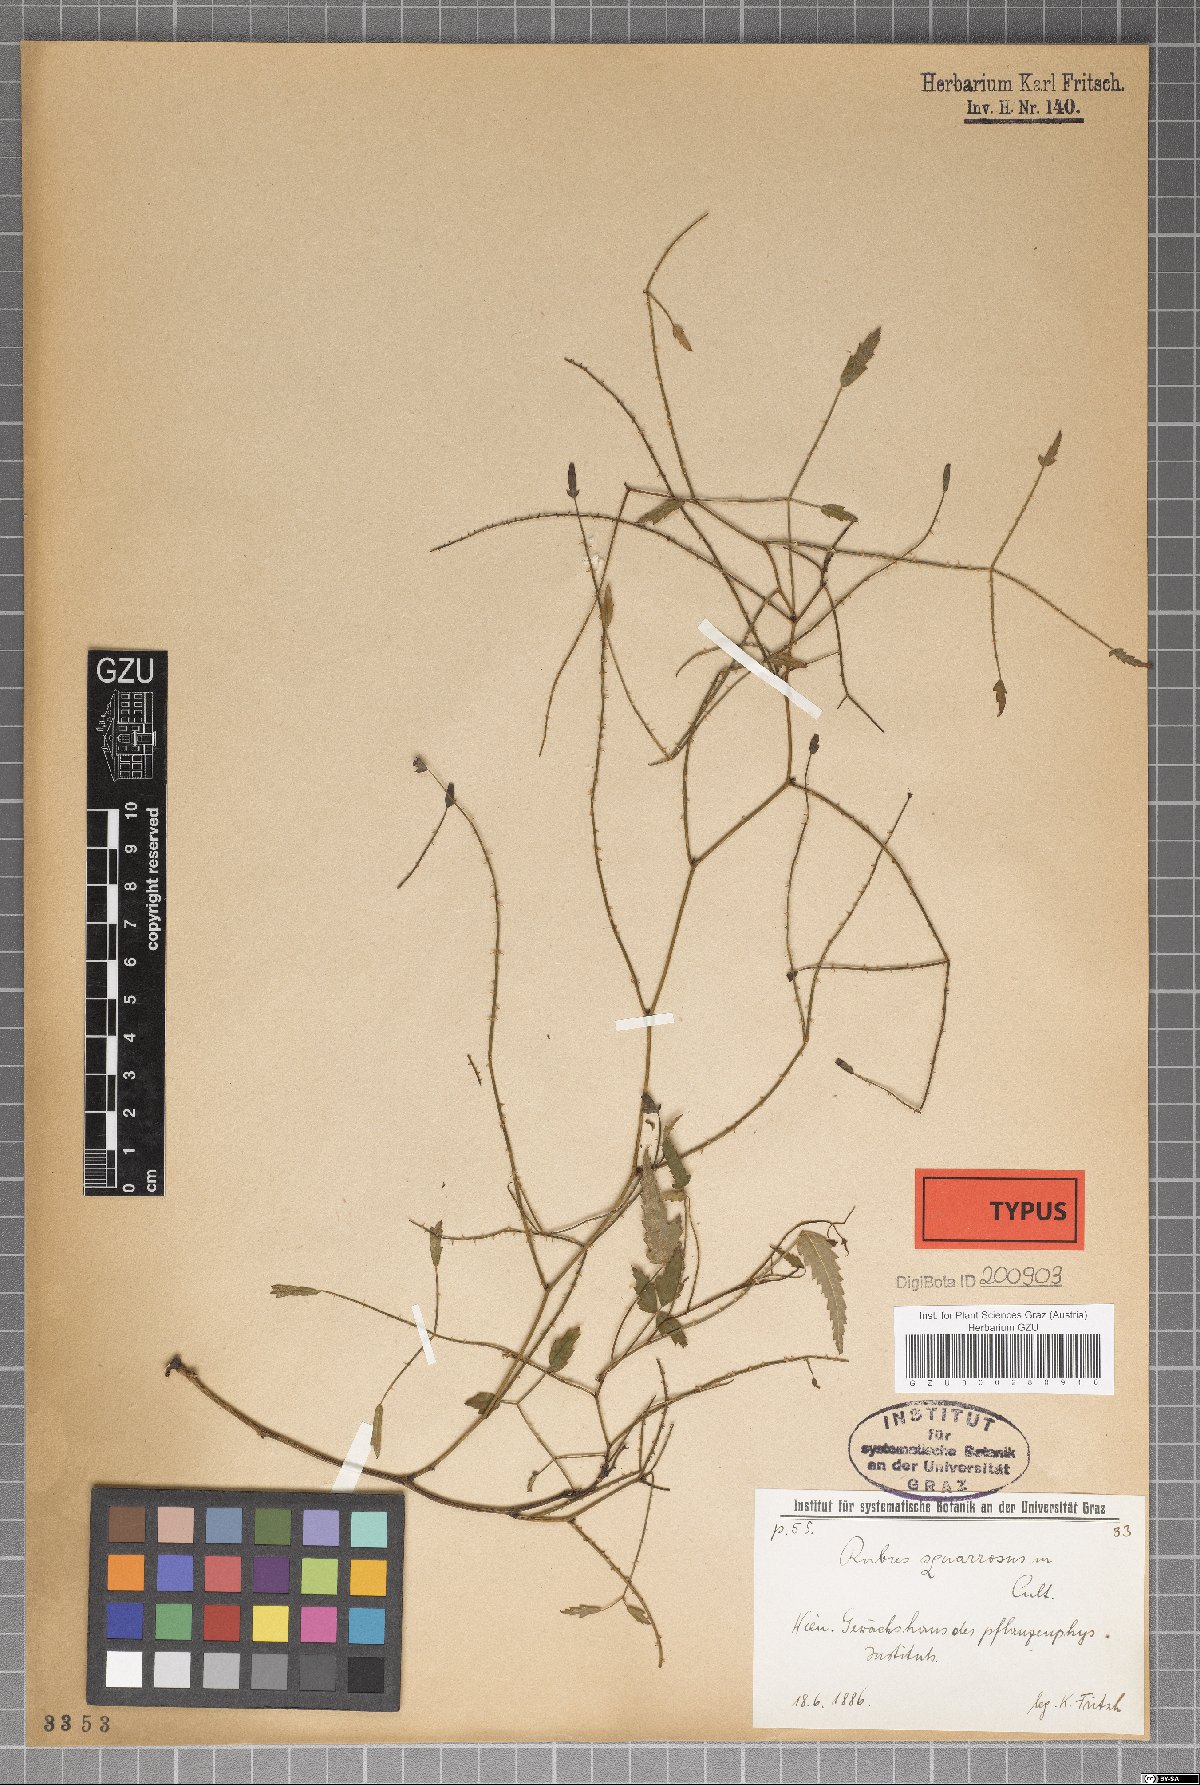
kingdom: Plantae
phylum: Tracheophyta
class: Magnoliopsida
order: Rosales
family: Rosaceae
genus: Rubus
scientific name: Rubus squarrosus
